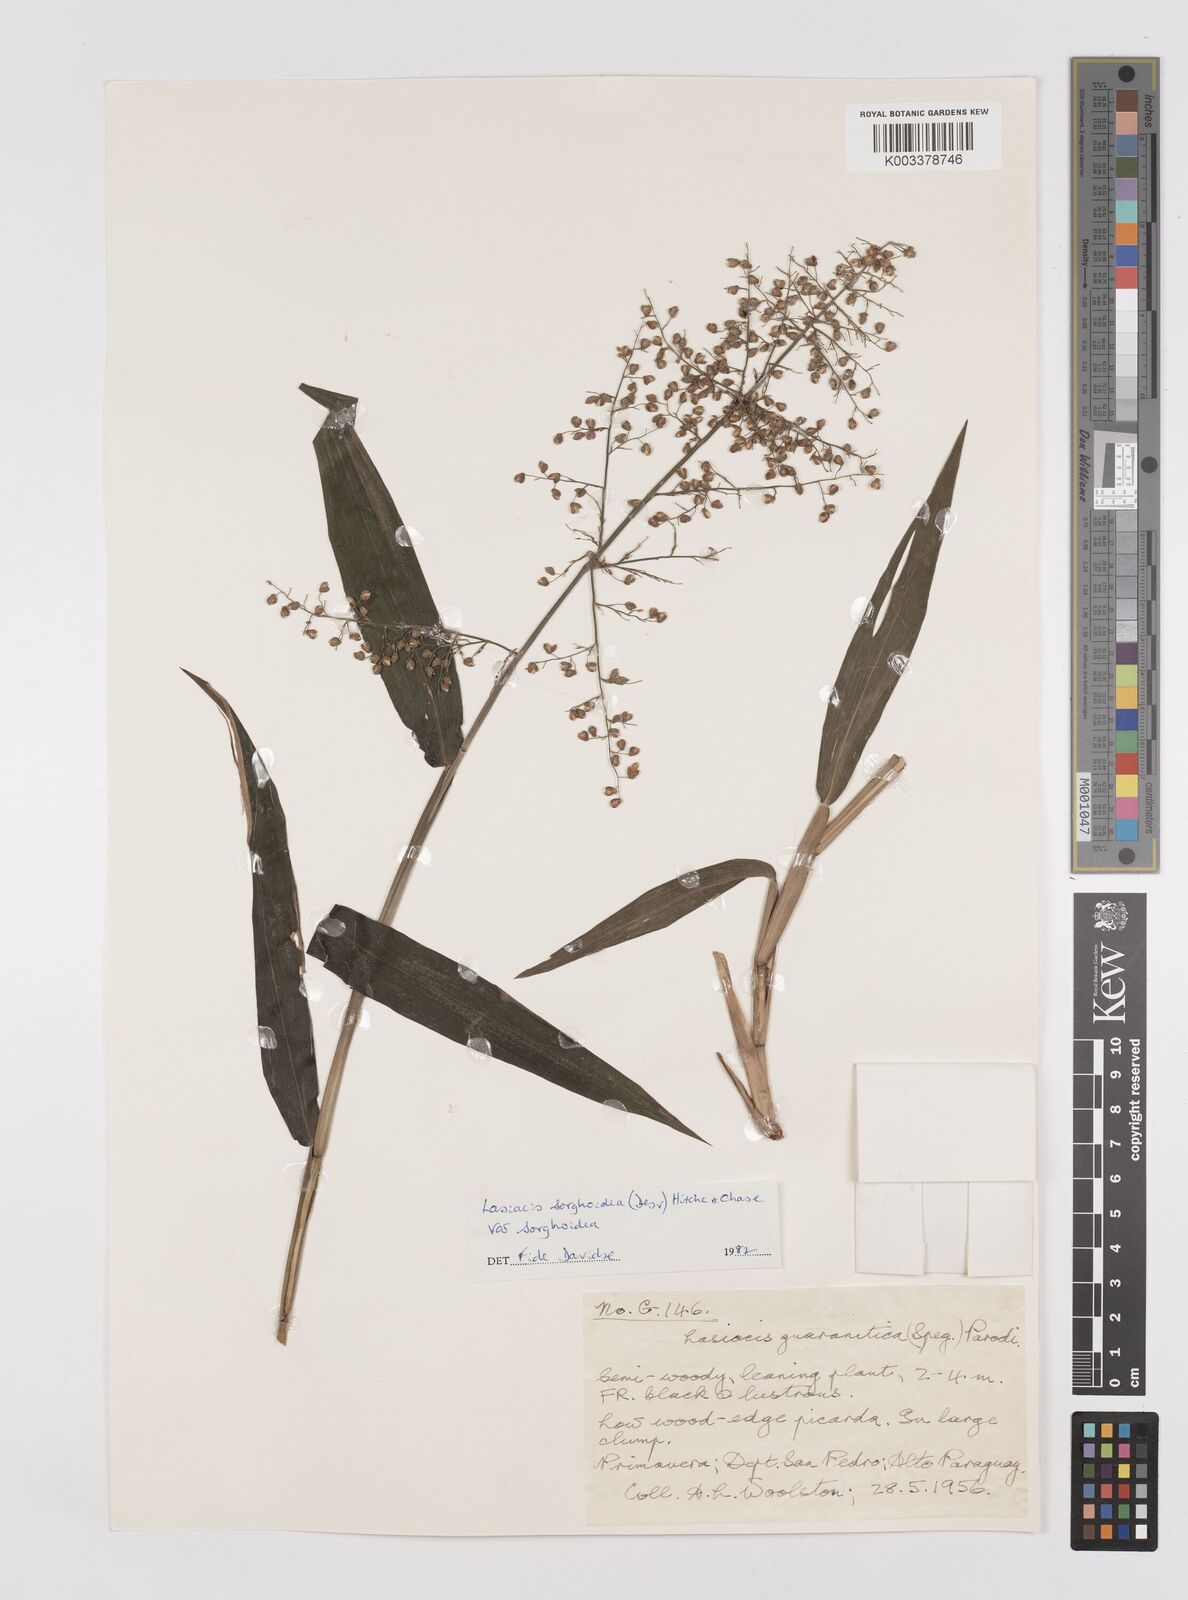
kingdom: Plantae
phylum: Tracheophyta
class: Liliopsida
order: Poales
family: Poaceae
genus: Lasiacis
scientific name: Lasiacis maculata
